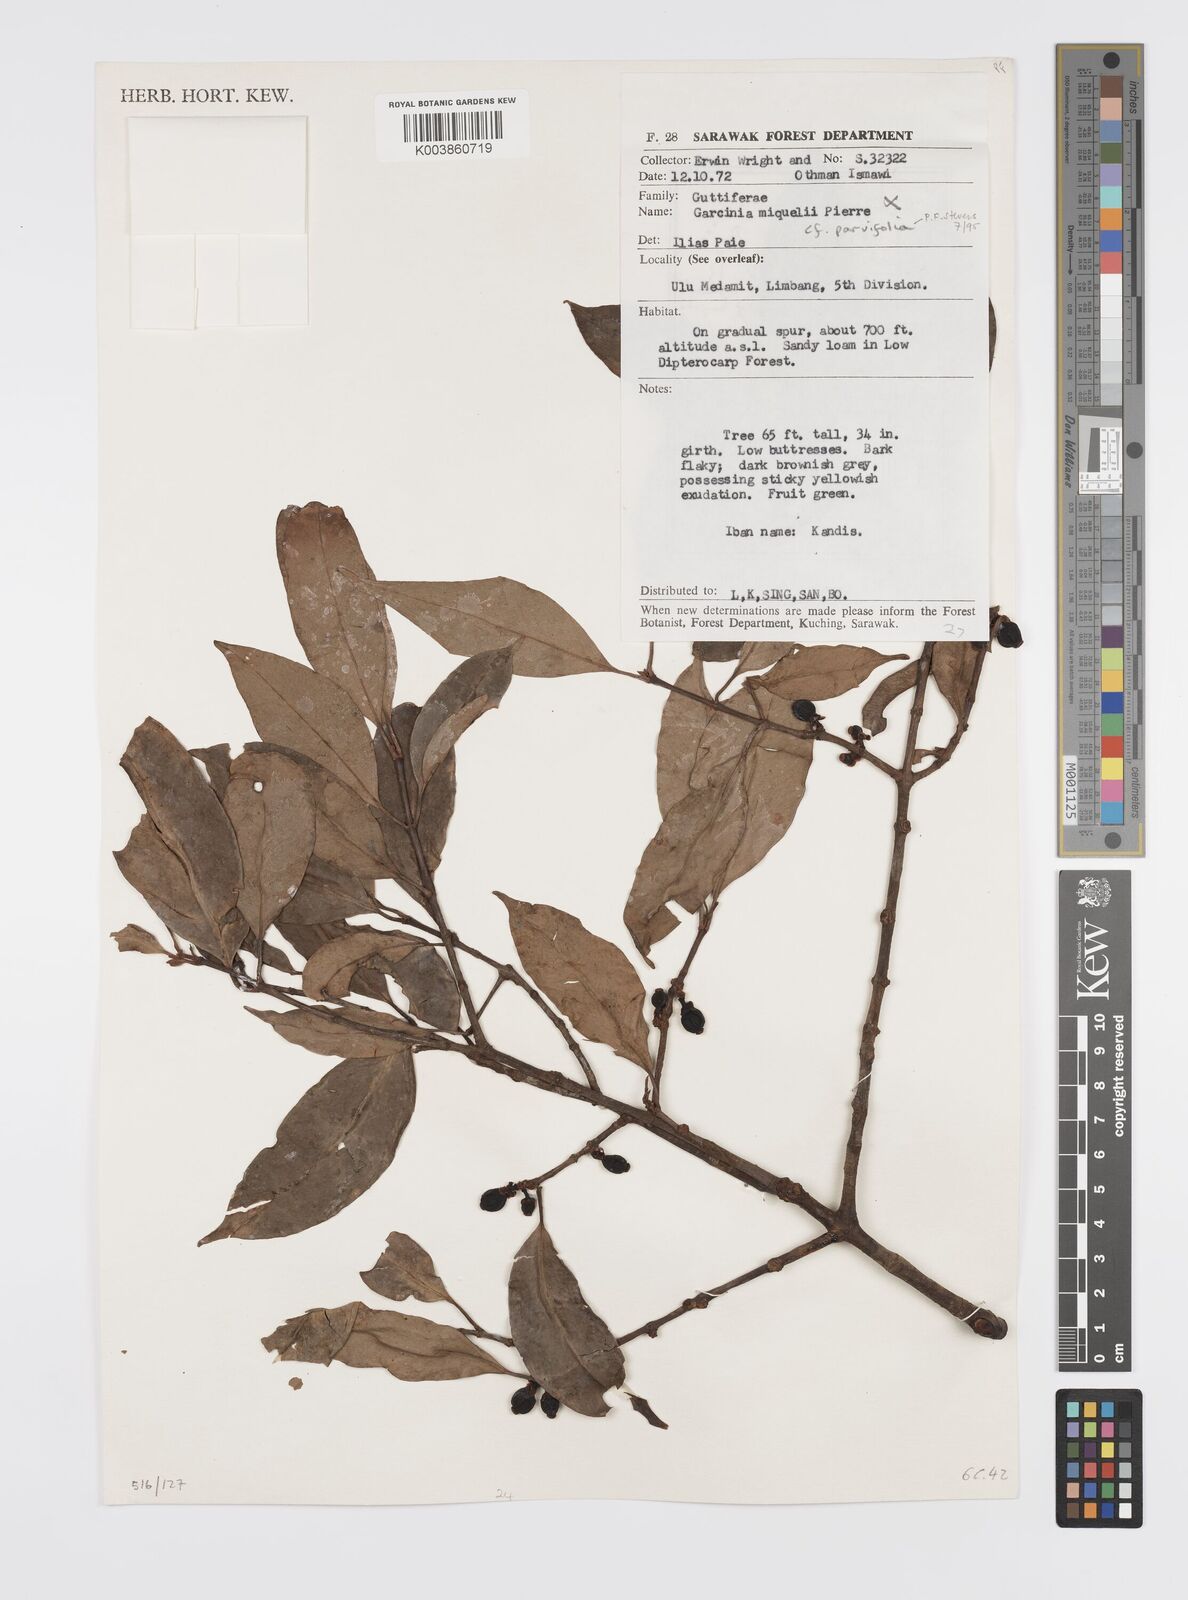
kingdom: Plantae
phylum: Tracheophyta
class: Magnoliopsida
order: Malpighiales
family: Clusiaceae
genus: Garcinia
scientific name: Garcinia parvifolia
